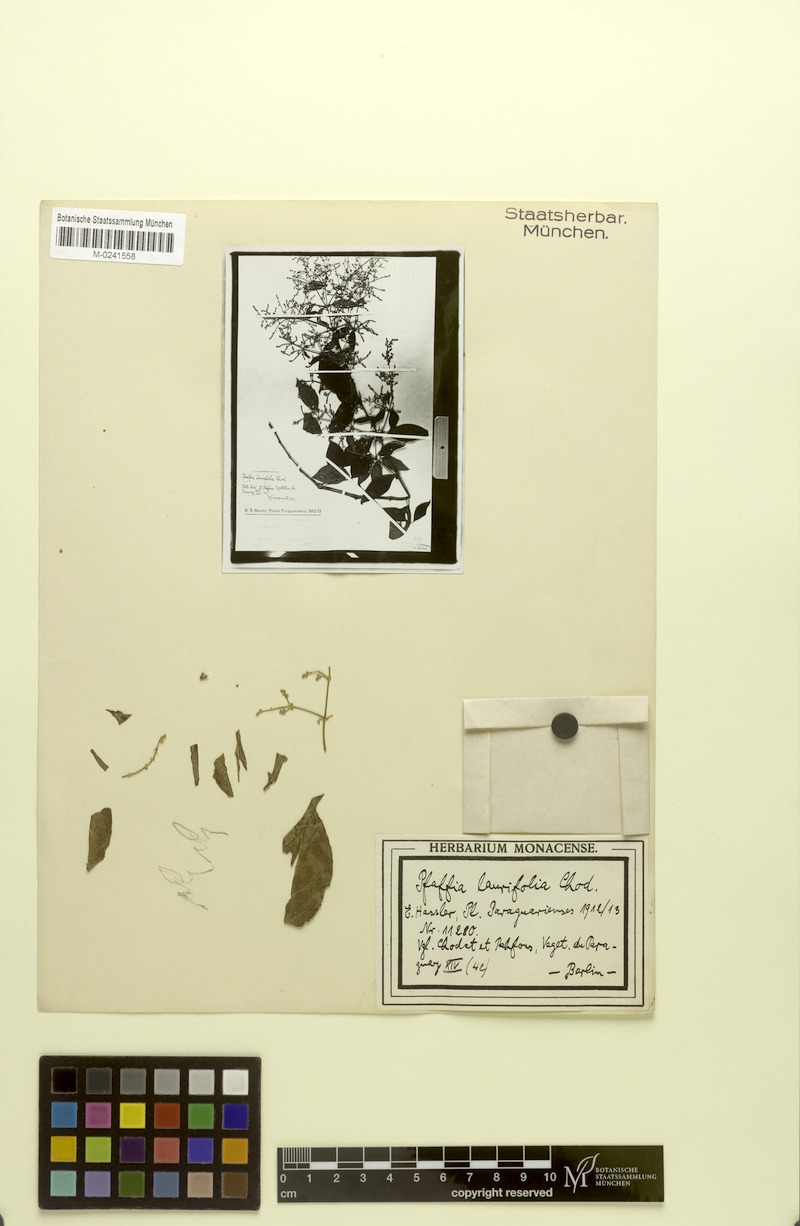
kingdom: Plantae
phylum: Tracheophyta
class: Magnoliopsida
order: Caryophyllales
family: Amaranthaceae
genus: Hebanthe
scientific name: Hebanthe erianthos
